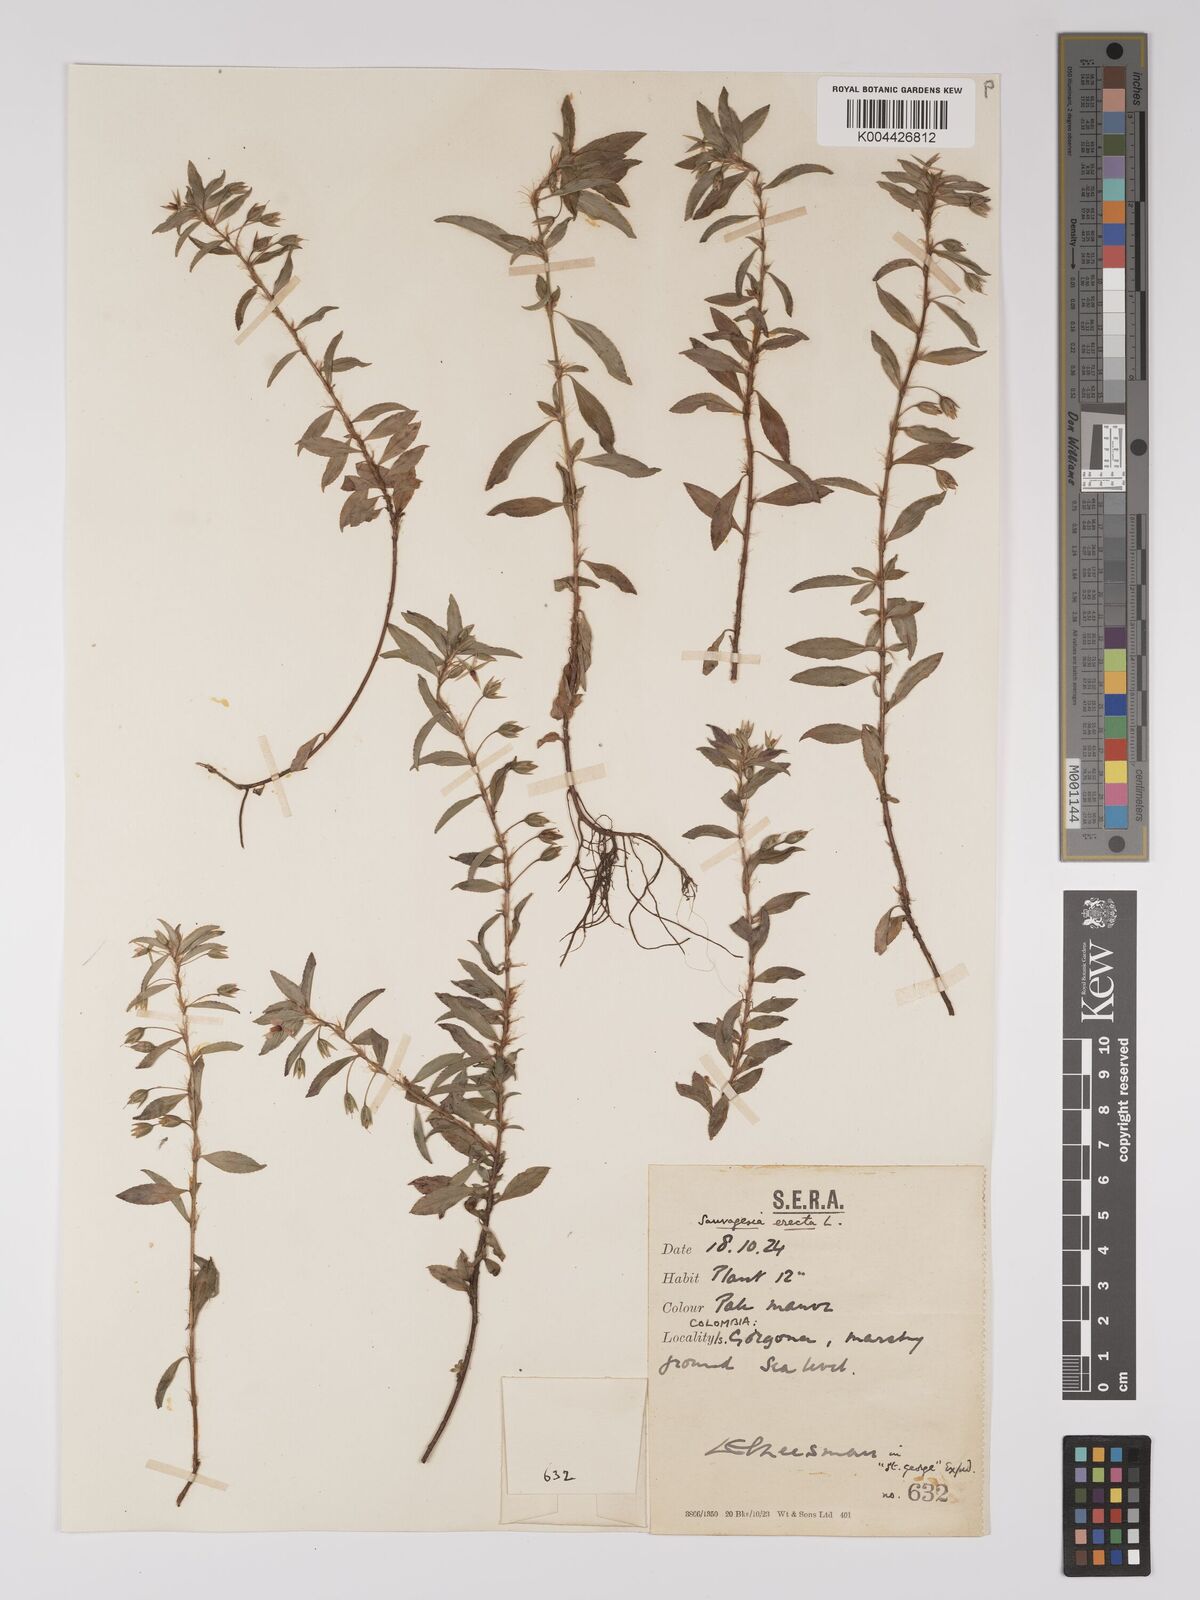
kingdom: Plantae
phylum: Tracheophyta
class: Magnoliopsida
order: Malpighiales
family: Ochnaceae
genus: Sauvagesia
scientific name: Sauvagesia erecta
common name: Creole tea
